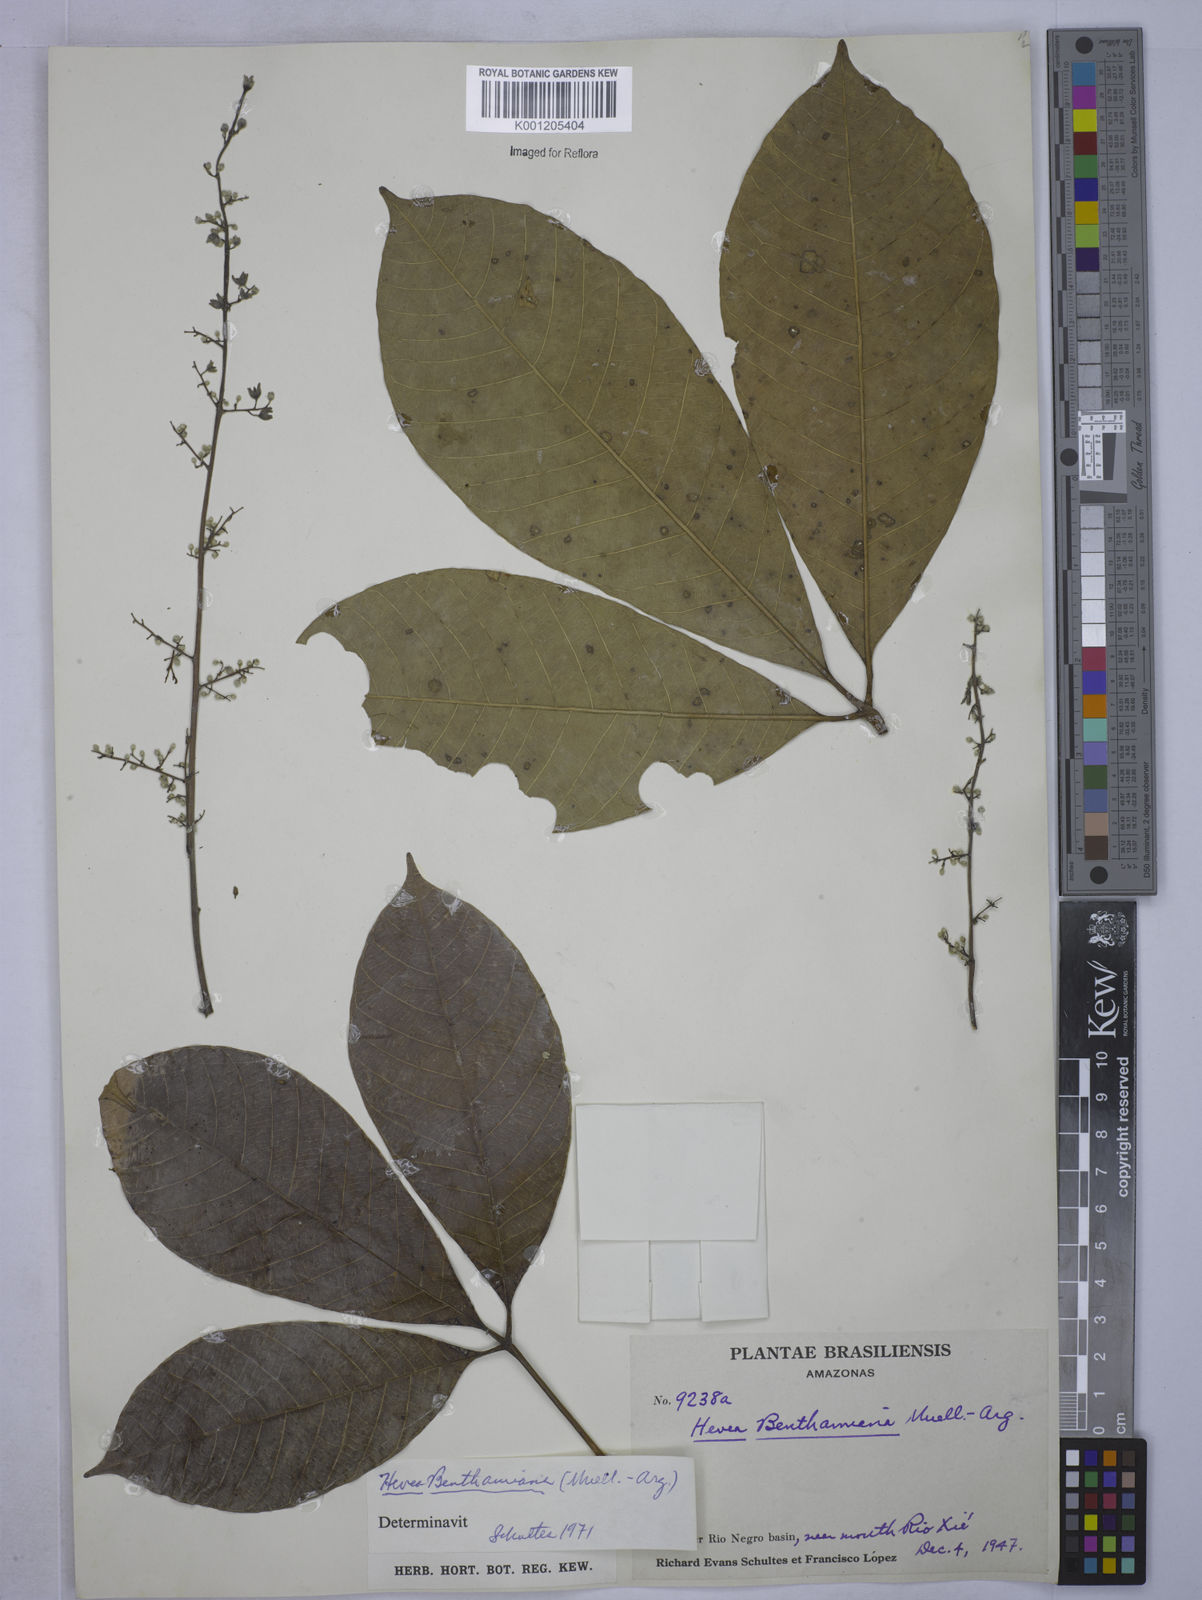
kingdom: Plantae
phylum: Tracheophyta
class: Magnoliopsida
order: Malpighiales
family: Euphorbiaceae
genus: Hevea
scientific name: Hevea
